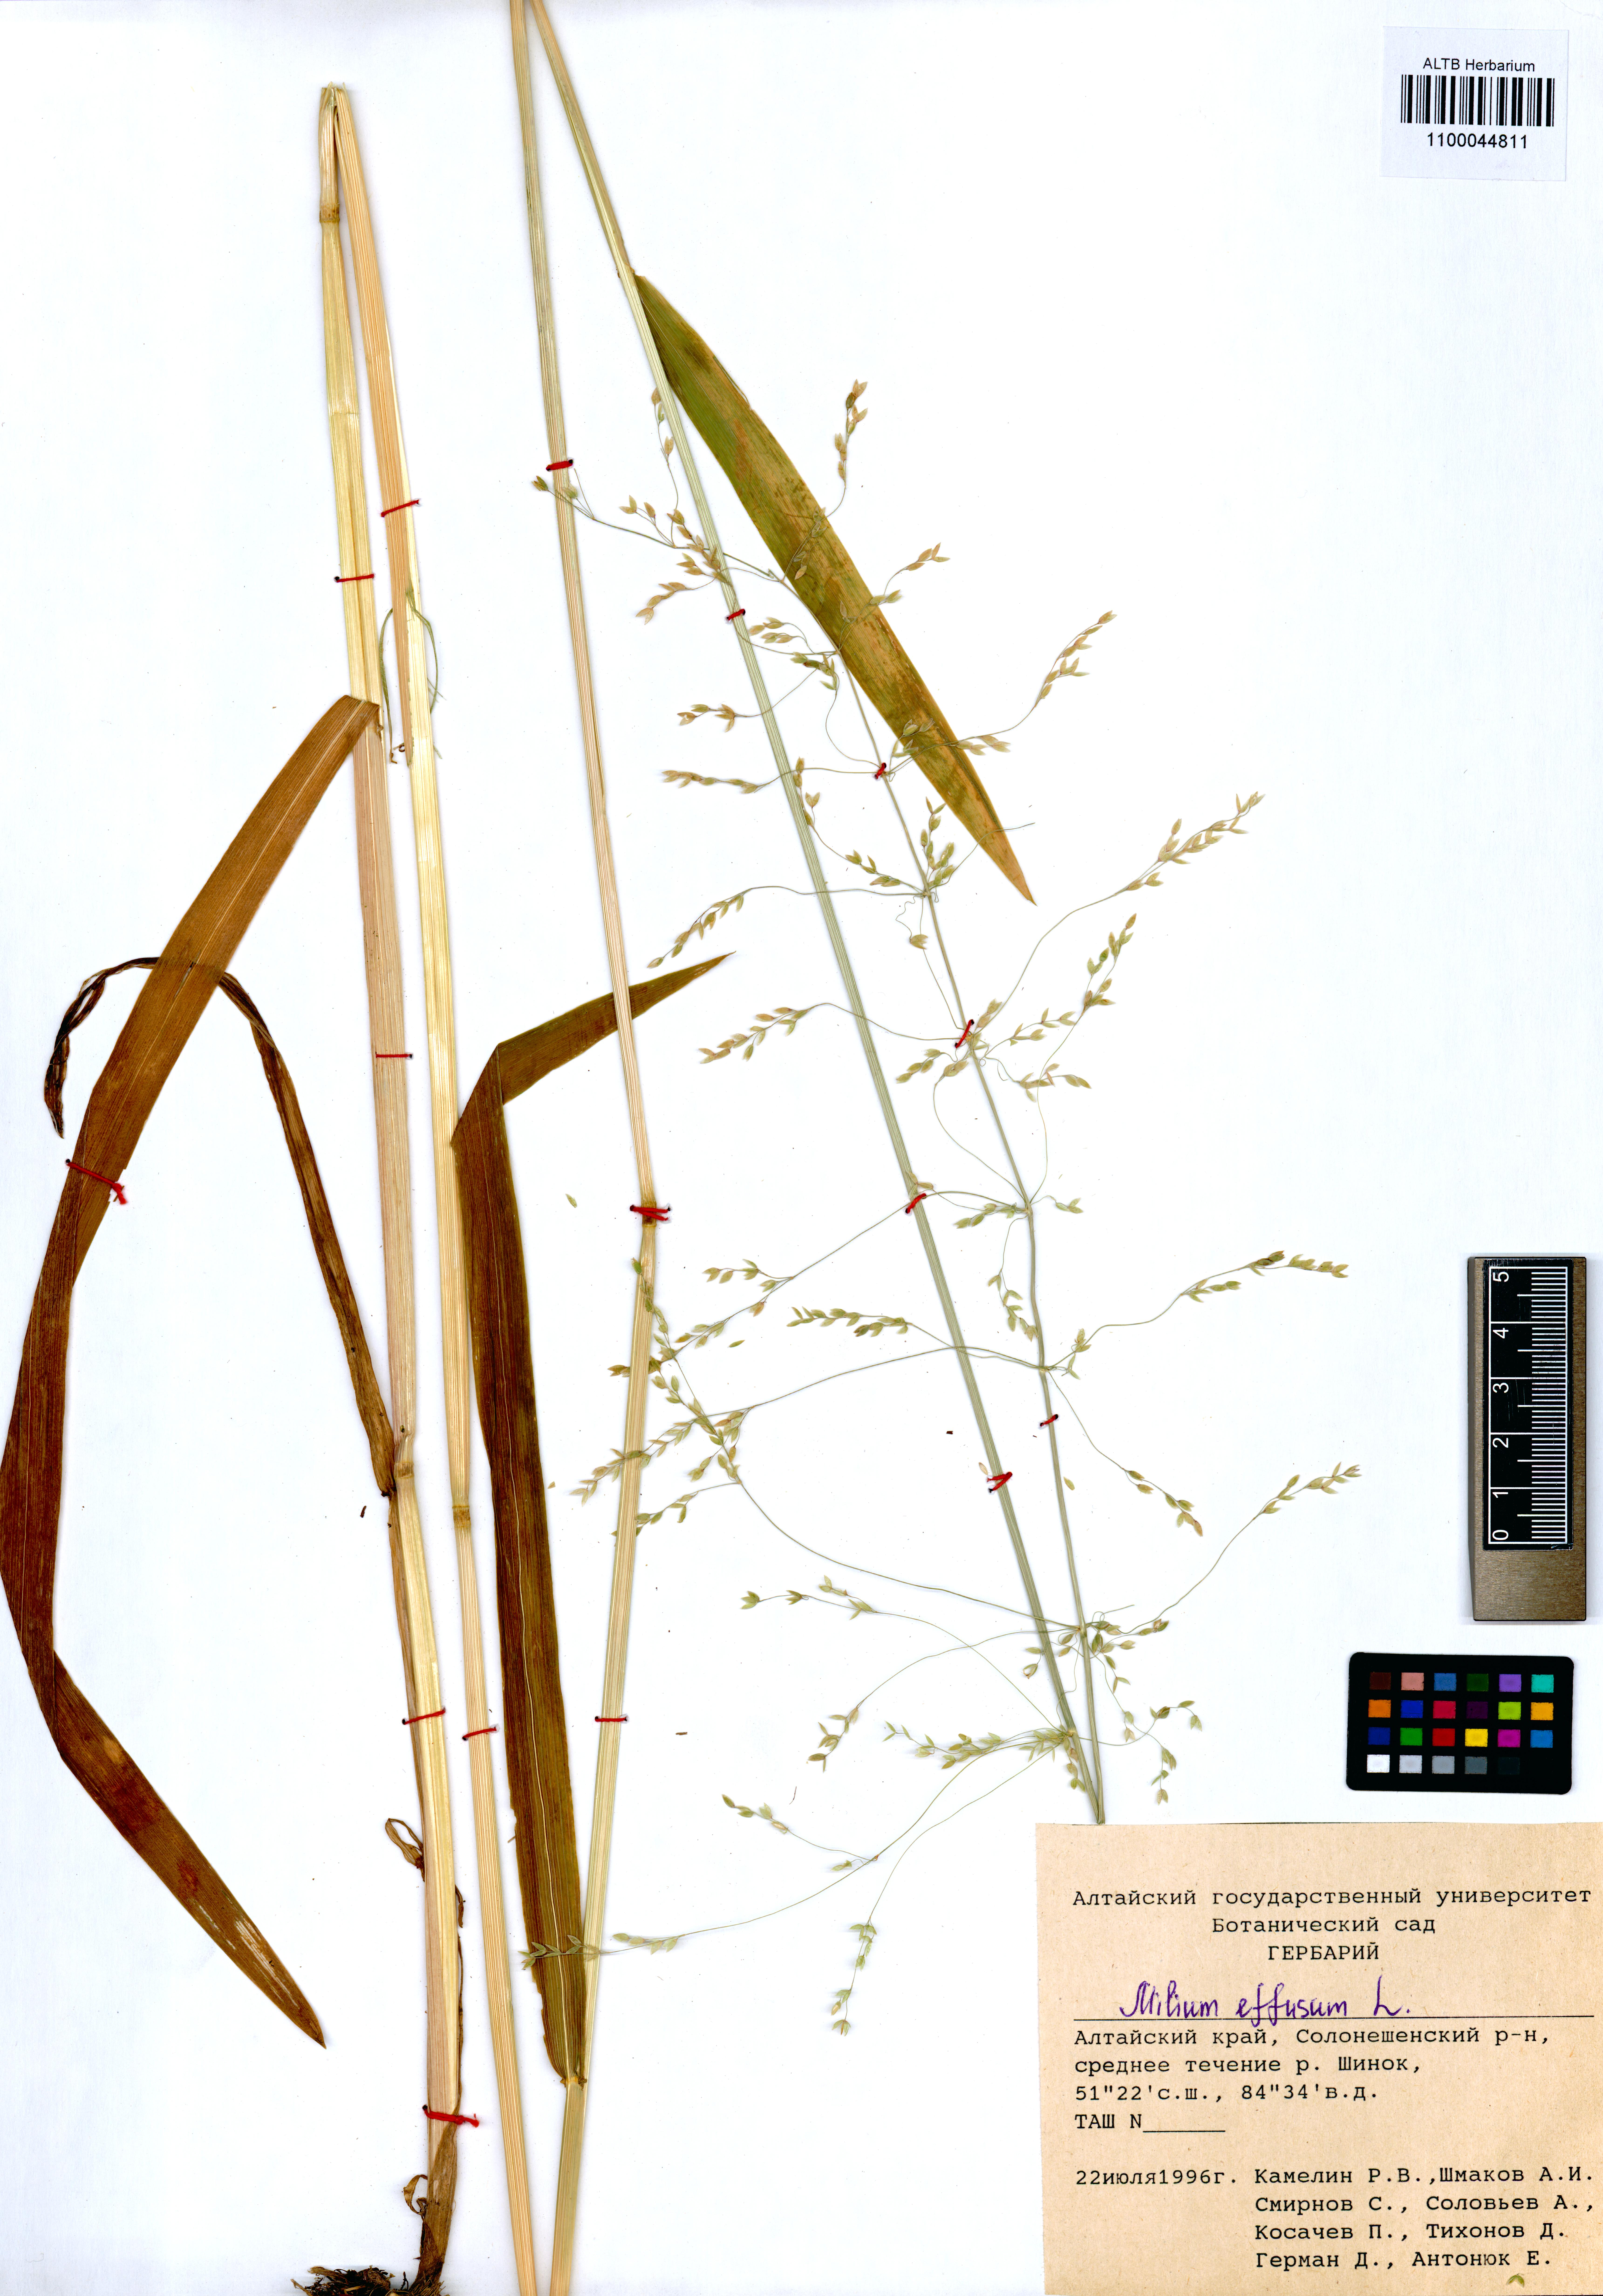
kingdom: Plantae
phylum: Tracheophyta
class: Liliopsida
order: Poales
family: Poaceae
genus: Milium
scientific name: Milium effusum
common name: Wood millet
